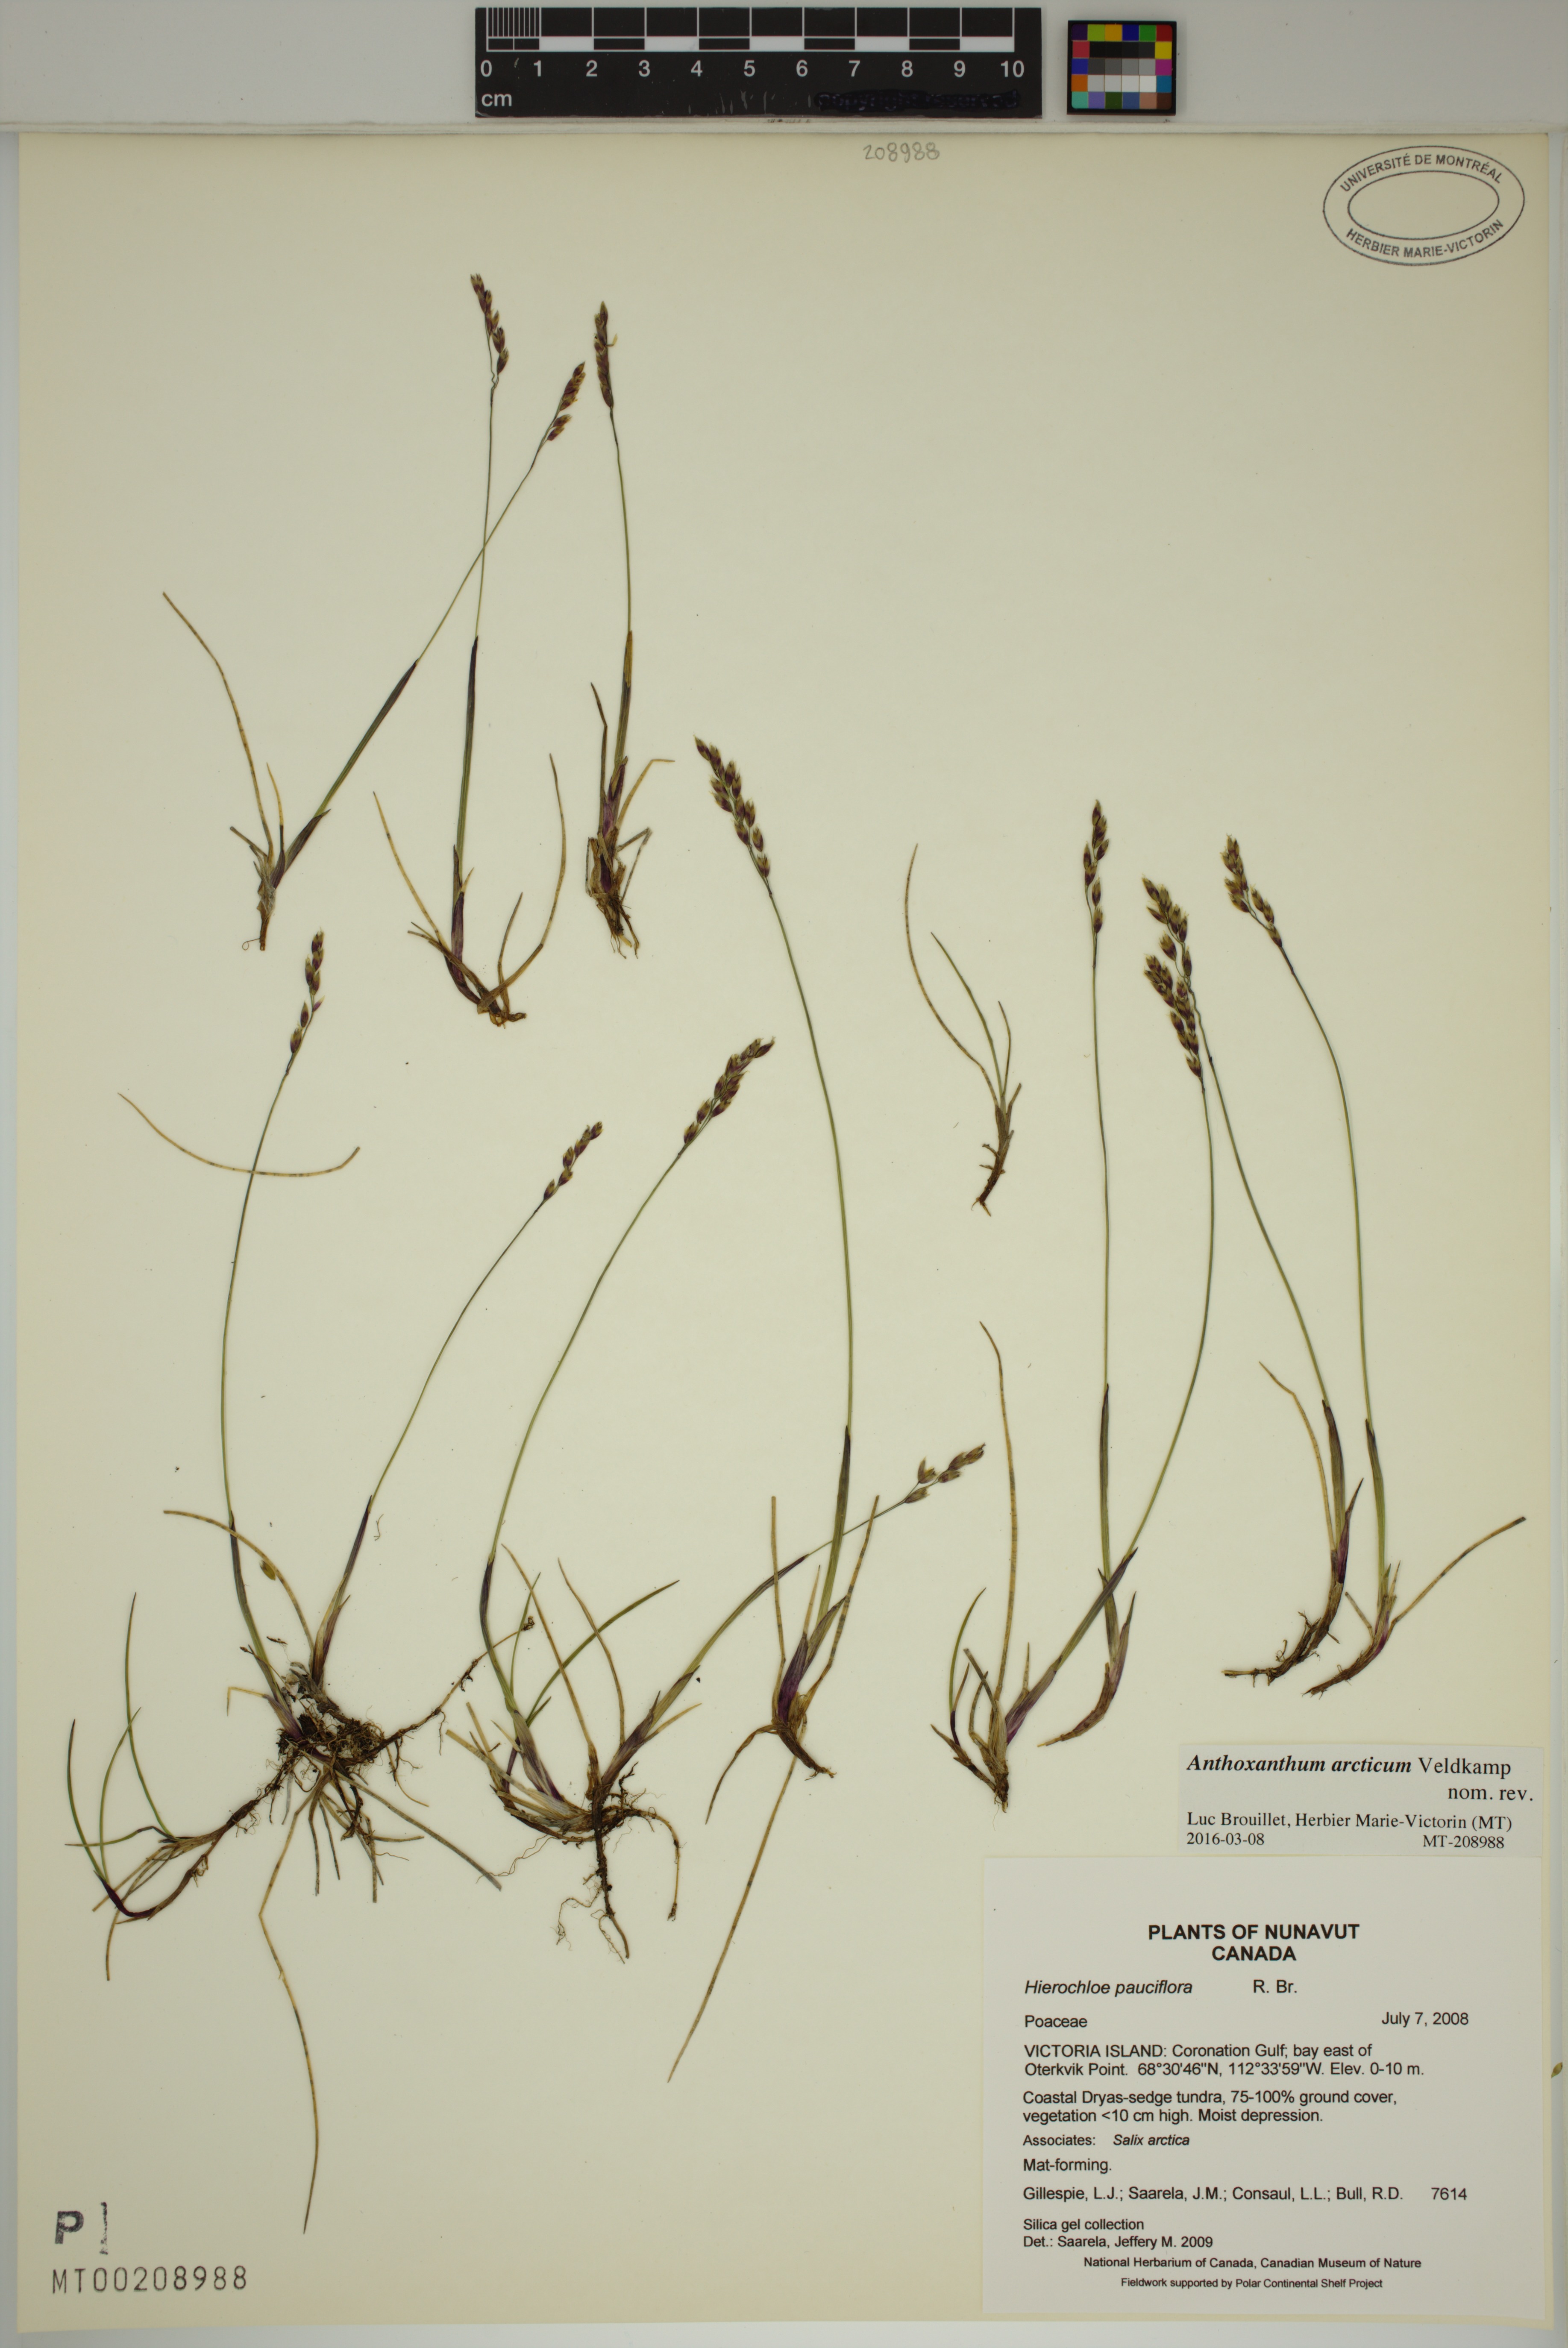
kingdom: Plantae
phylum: Tracheophyta
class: Liliopsida
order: Poales
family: Poaceae
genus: Anthoxanthum
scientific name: Anthoxanthum arcticum
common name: Arctic sweetgrass
